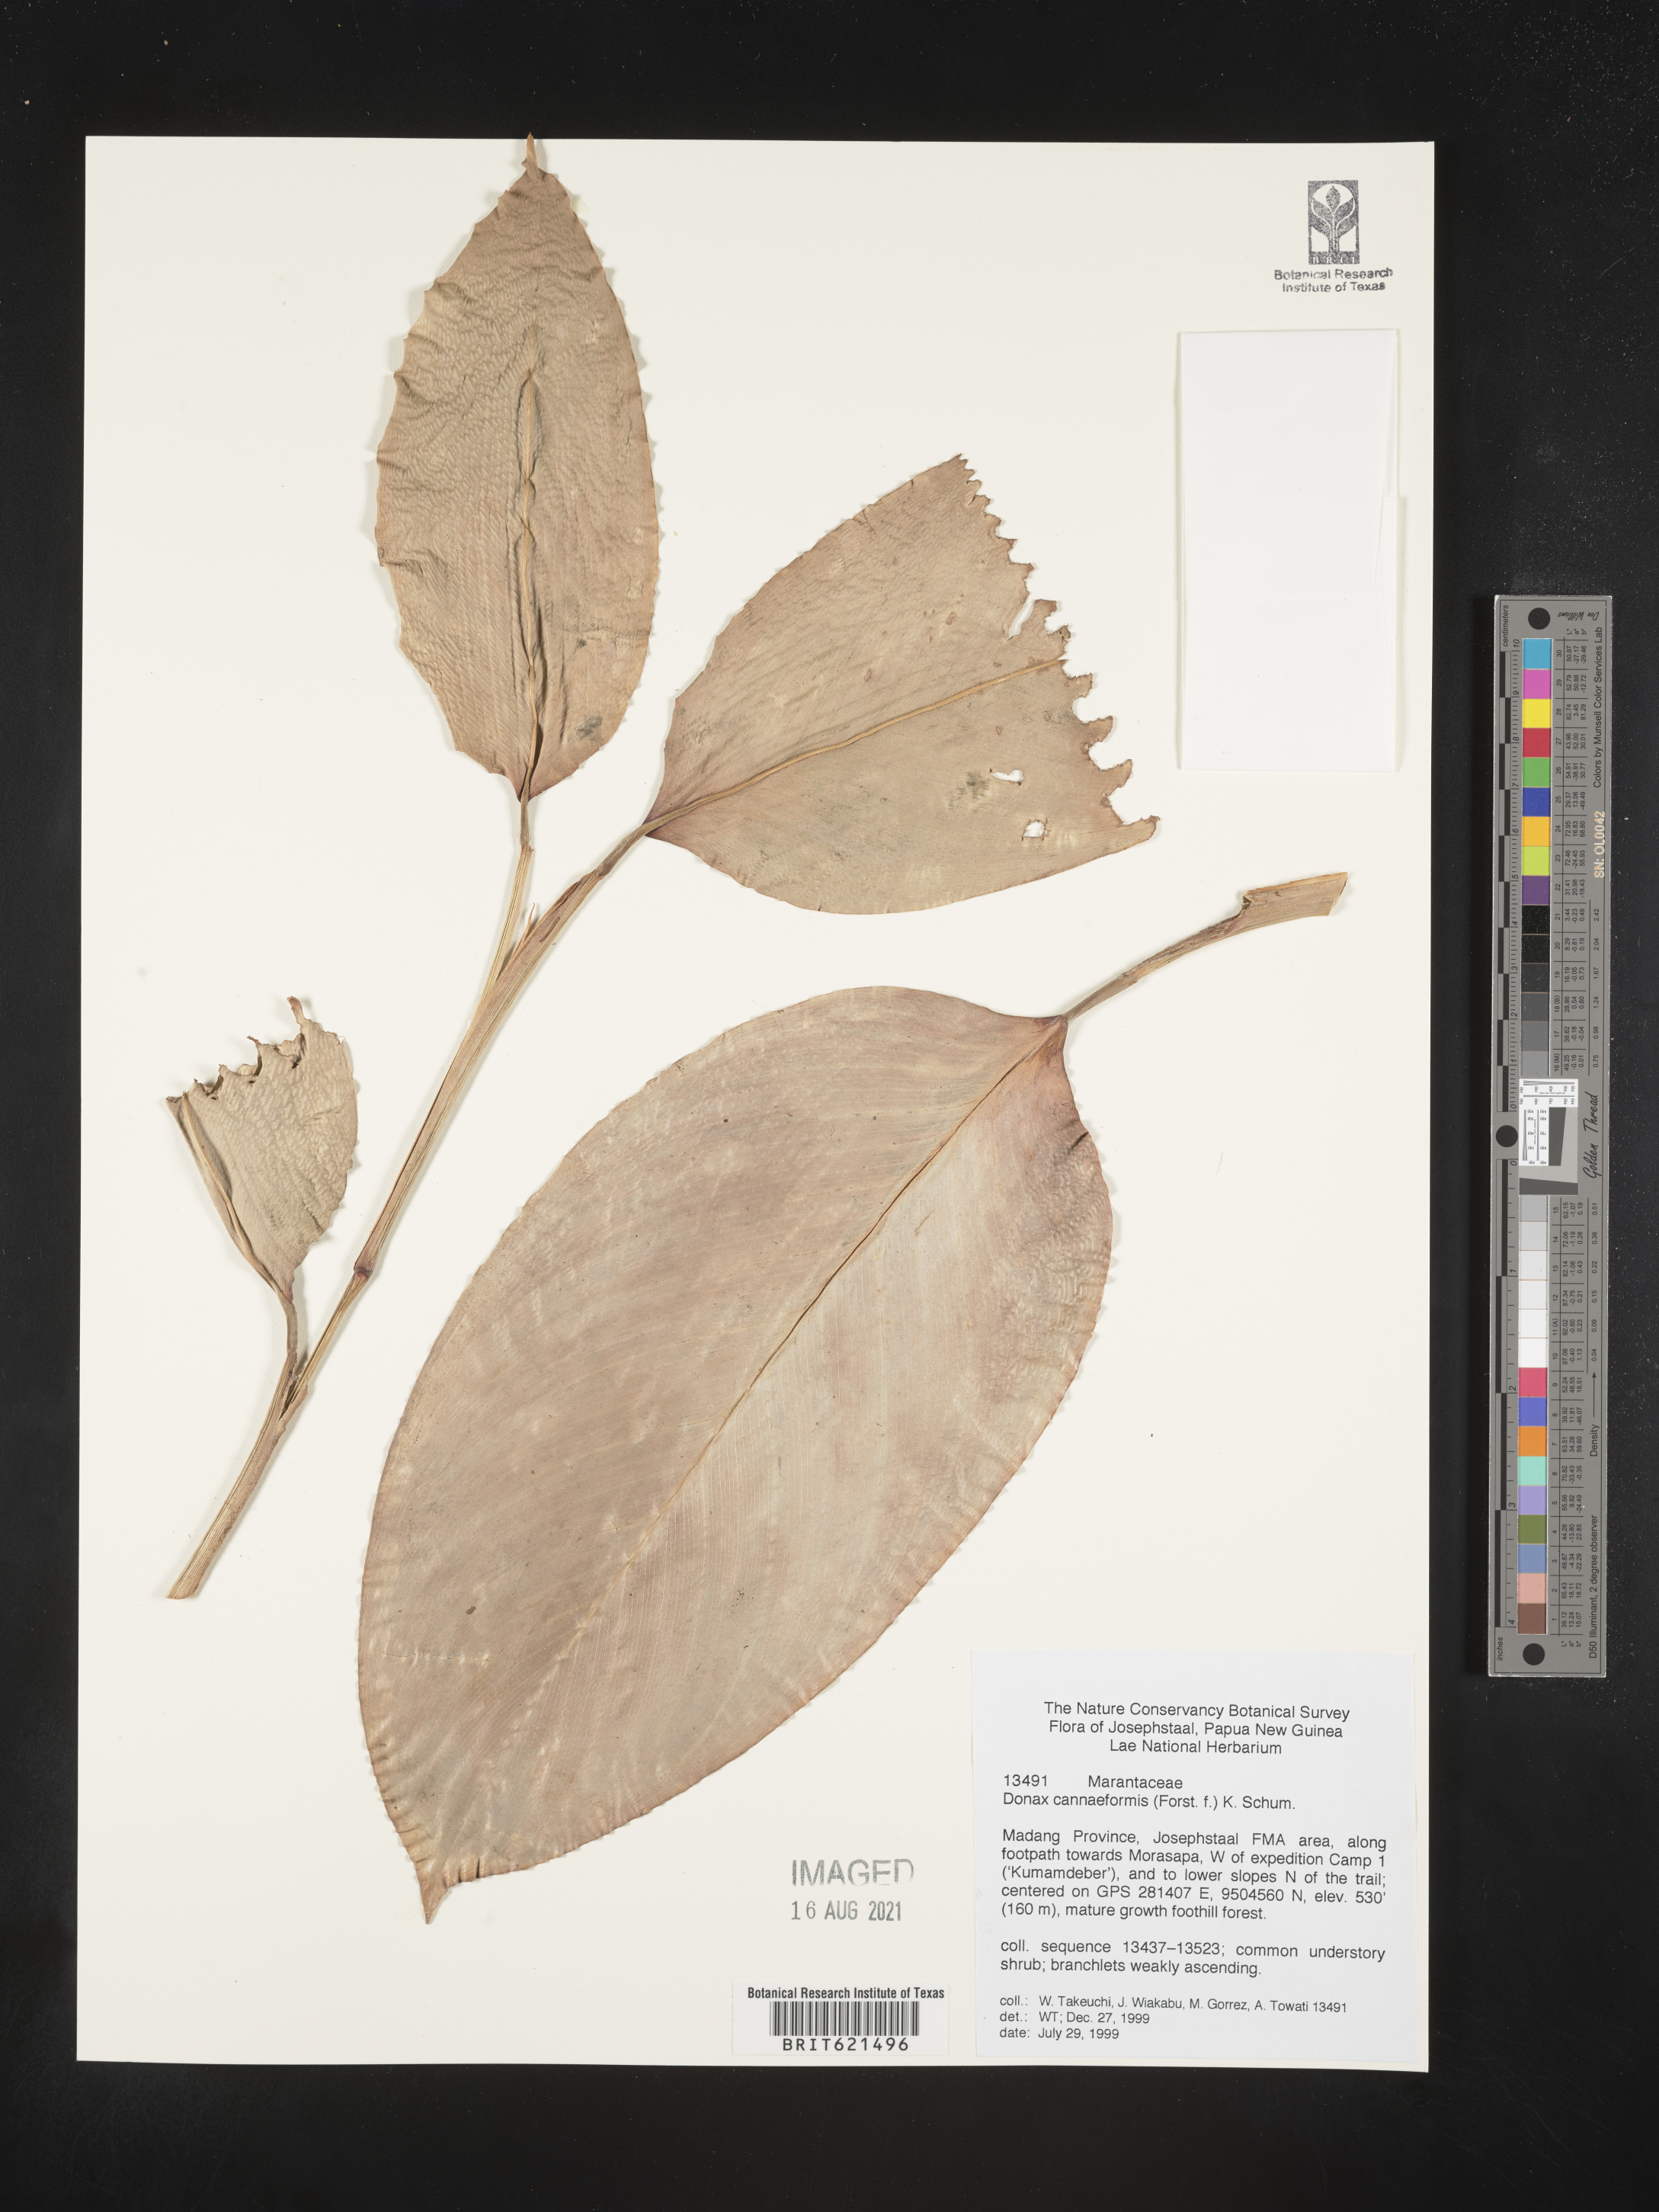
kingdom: Plantae
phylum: Tracheophyta
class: Liliopsida
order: Zingiberales
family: Marantaceae
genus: Donax
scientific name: Donax canniformis
